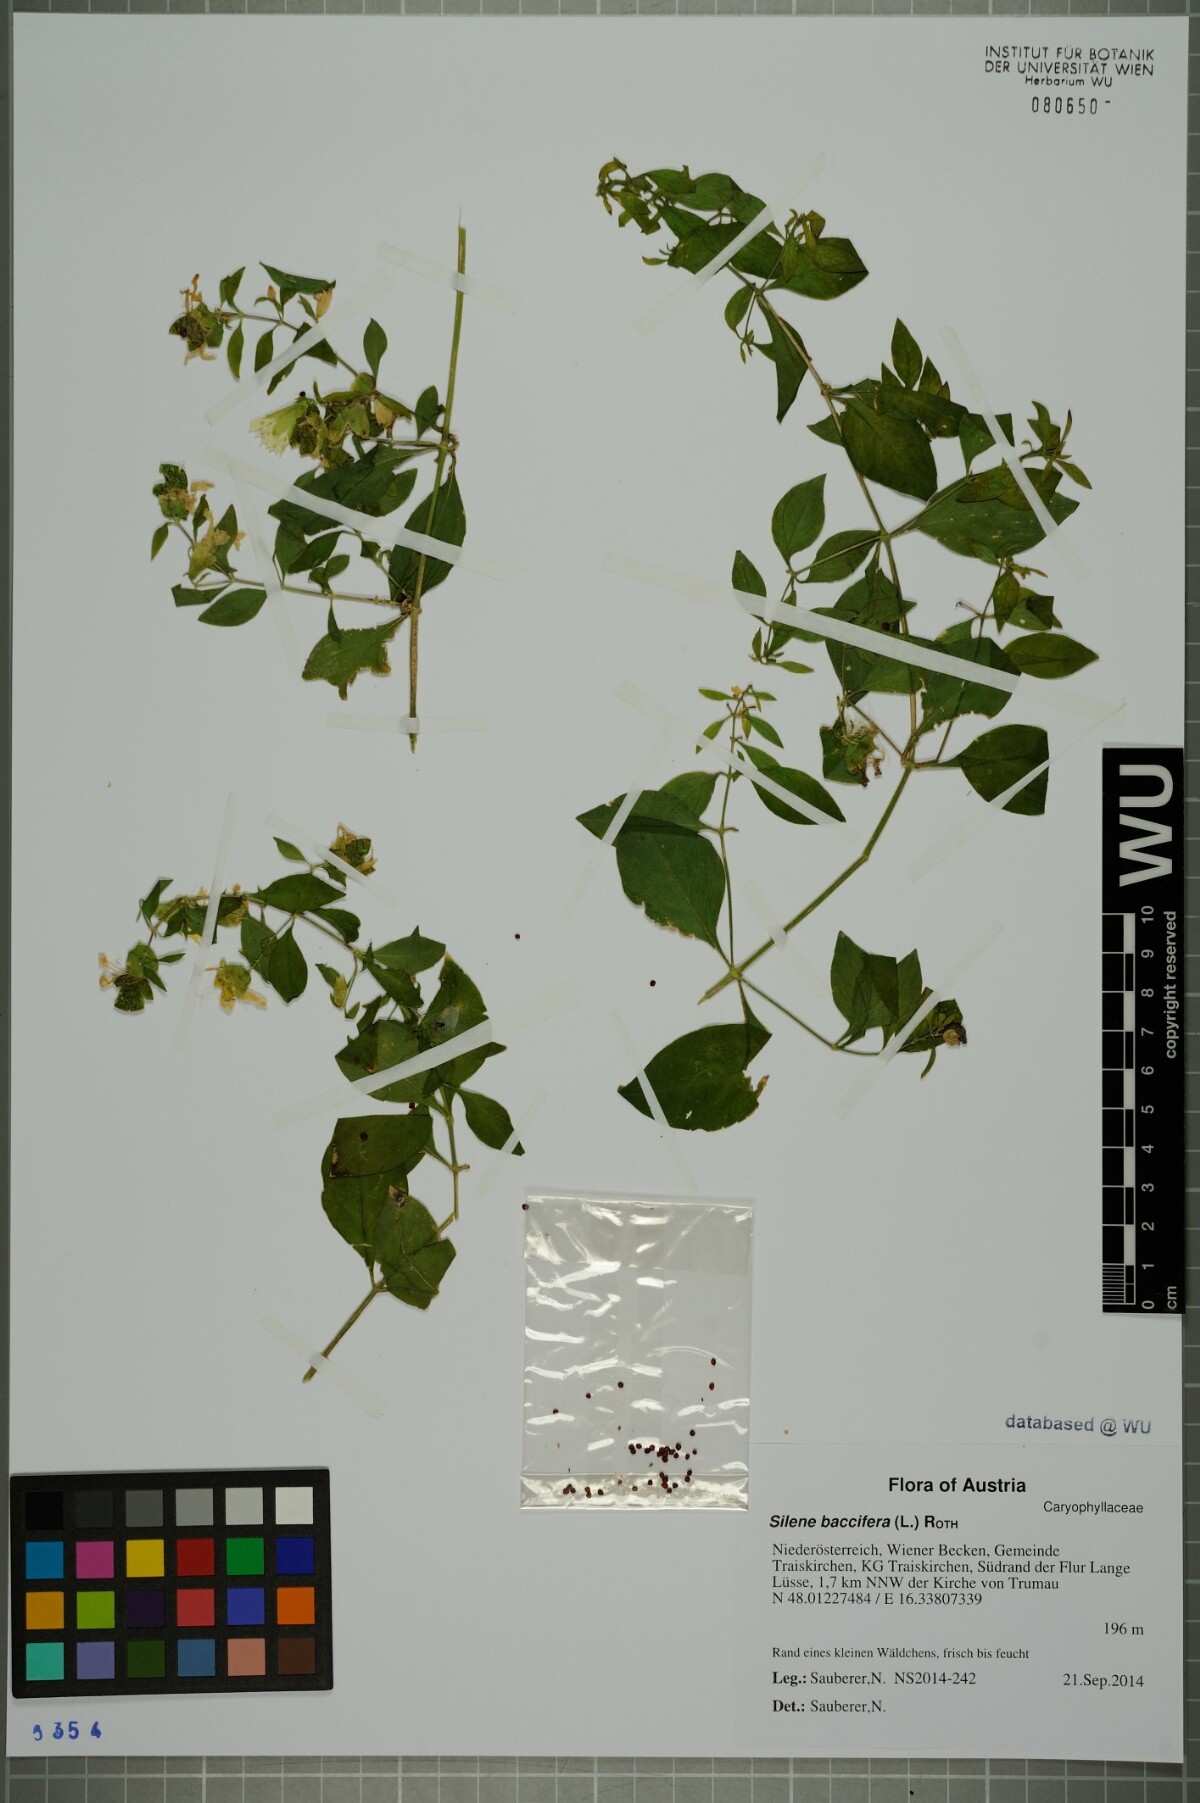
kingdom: Plantae
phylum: Tracheophyta
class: Magnoliopsida
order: Caryophyllales
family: Caryophyllaceae
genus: Silene
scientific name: Silene baccifera
